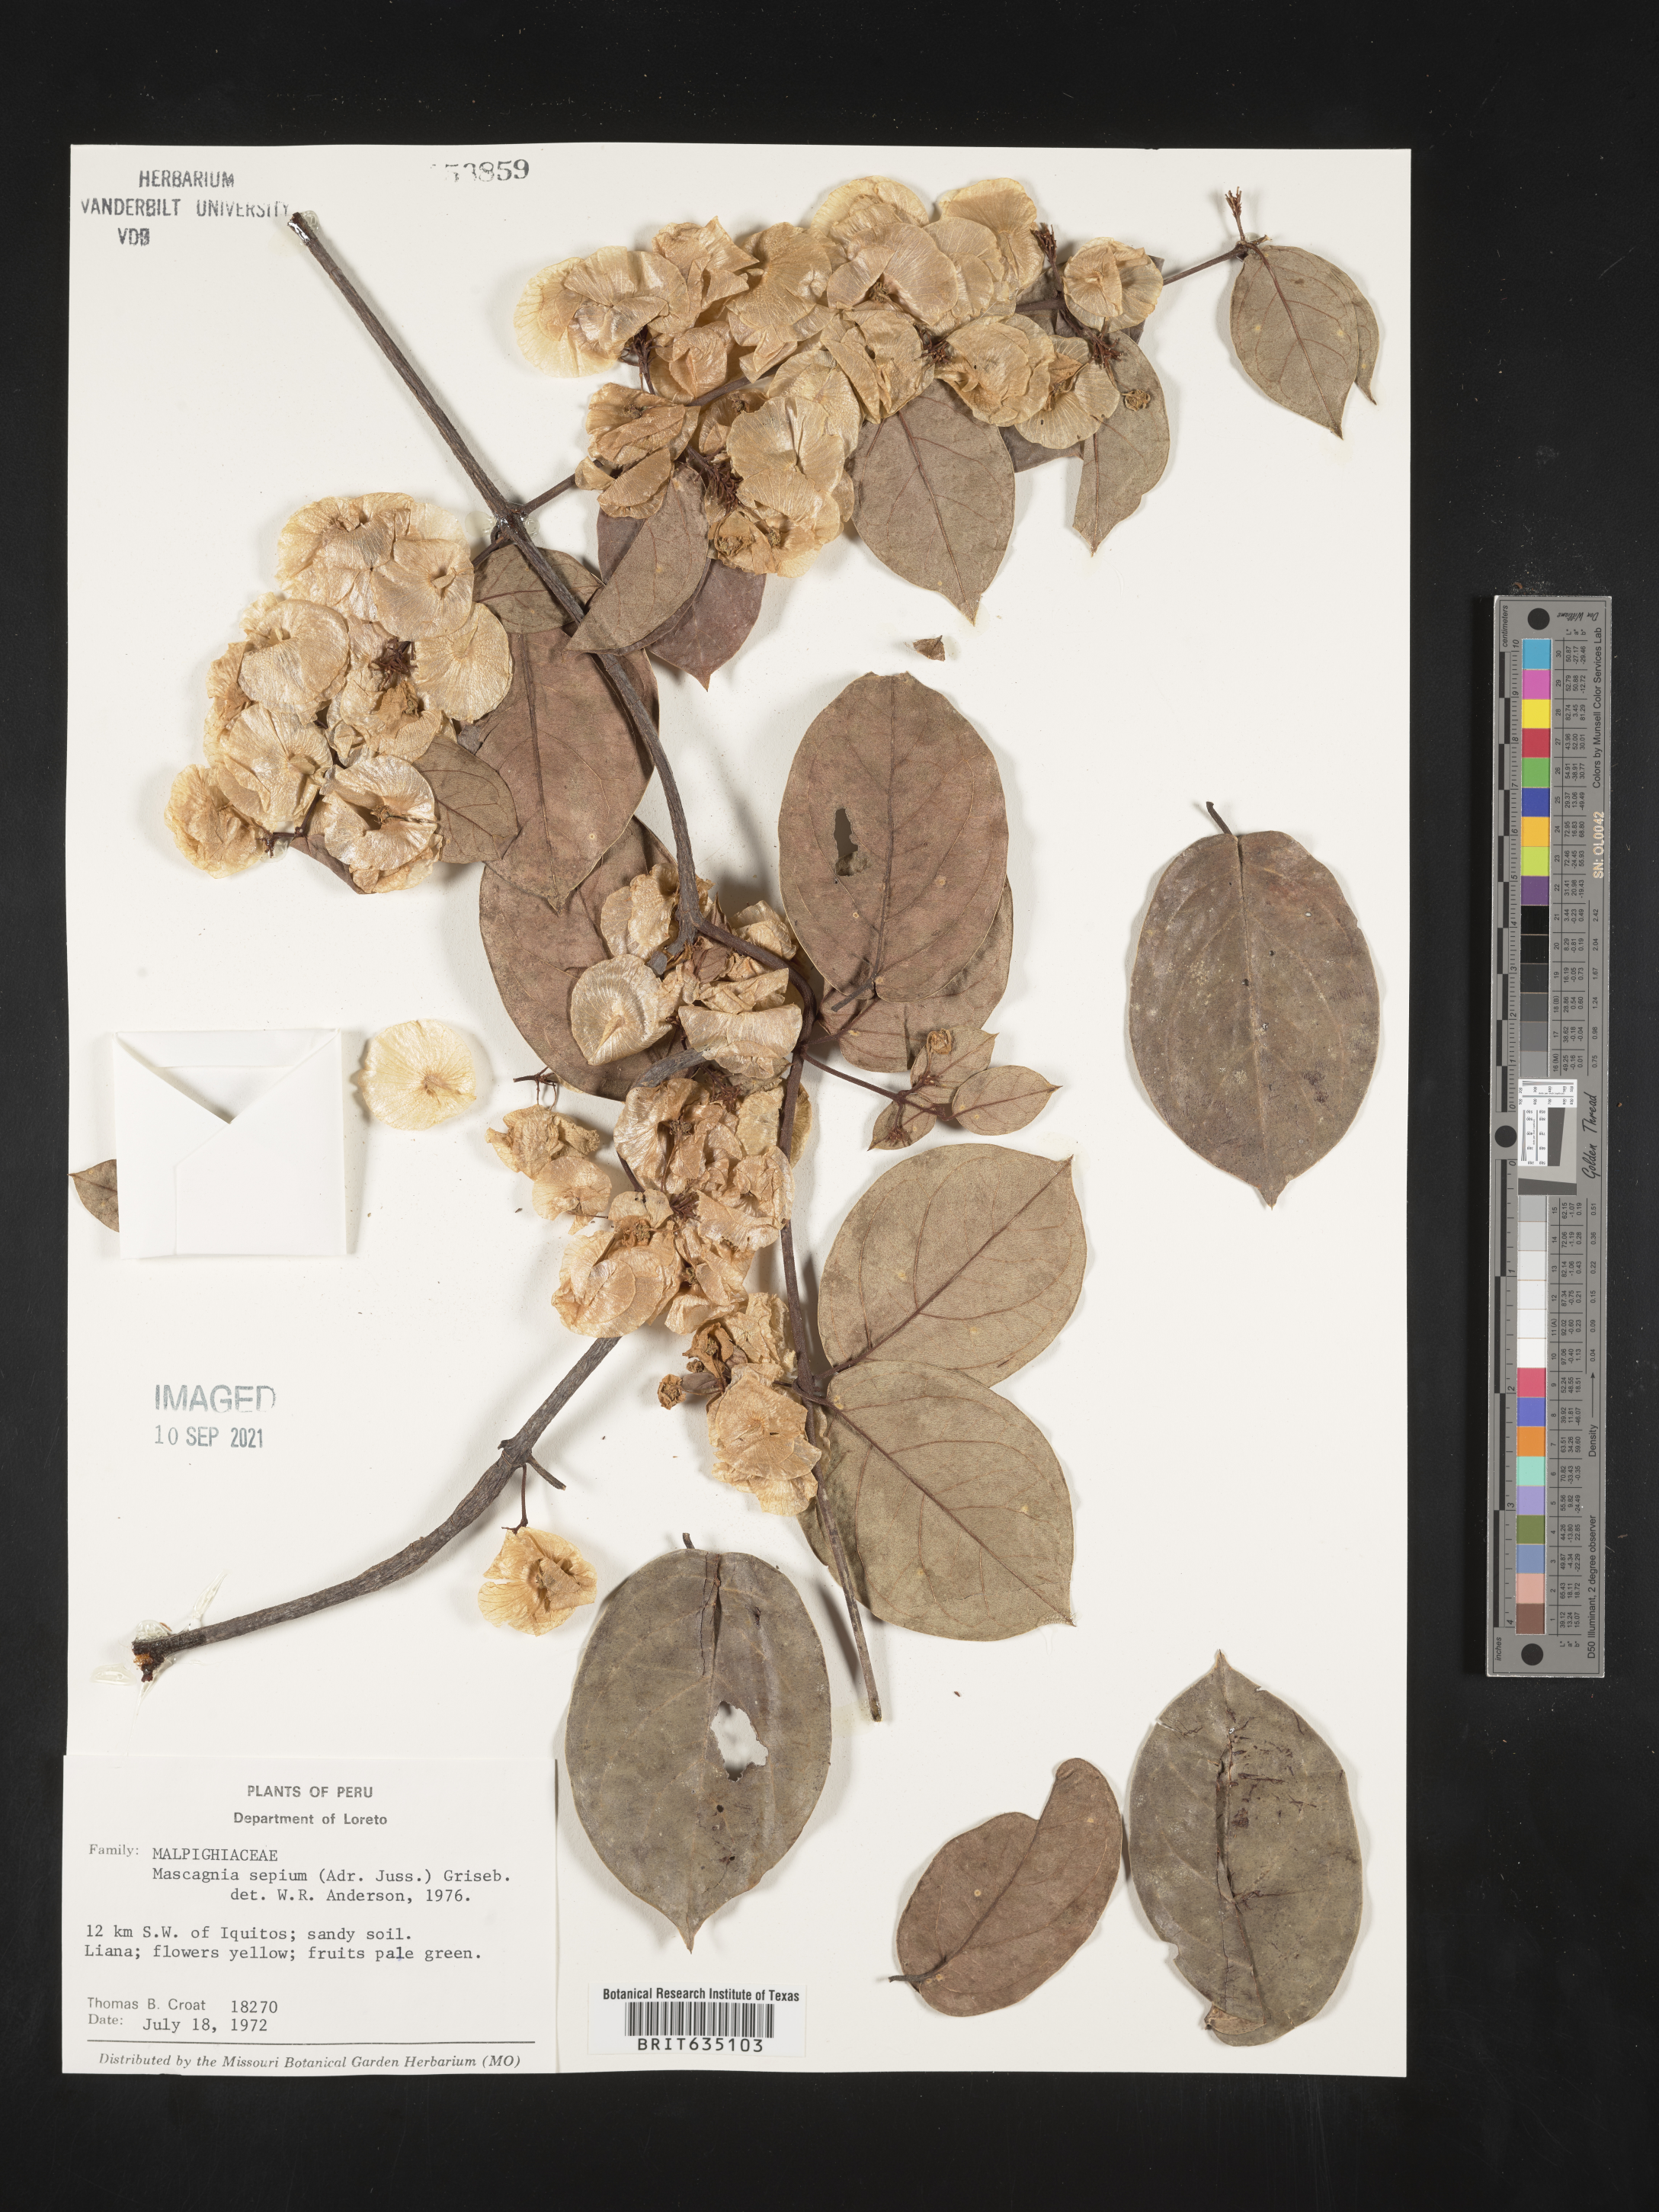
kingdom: Plantae
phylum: Tracheophyta
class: Magnoliopsida
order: Malpighiales
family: Malpighiaceae
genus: Mascagnia
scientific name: Mascagnia
